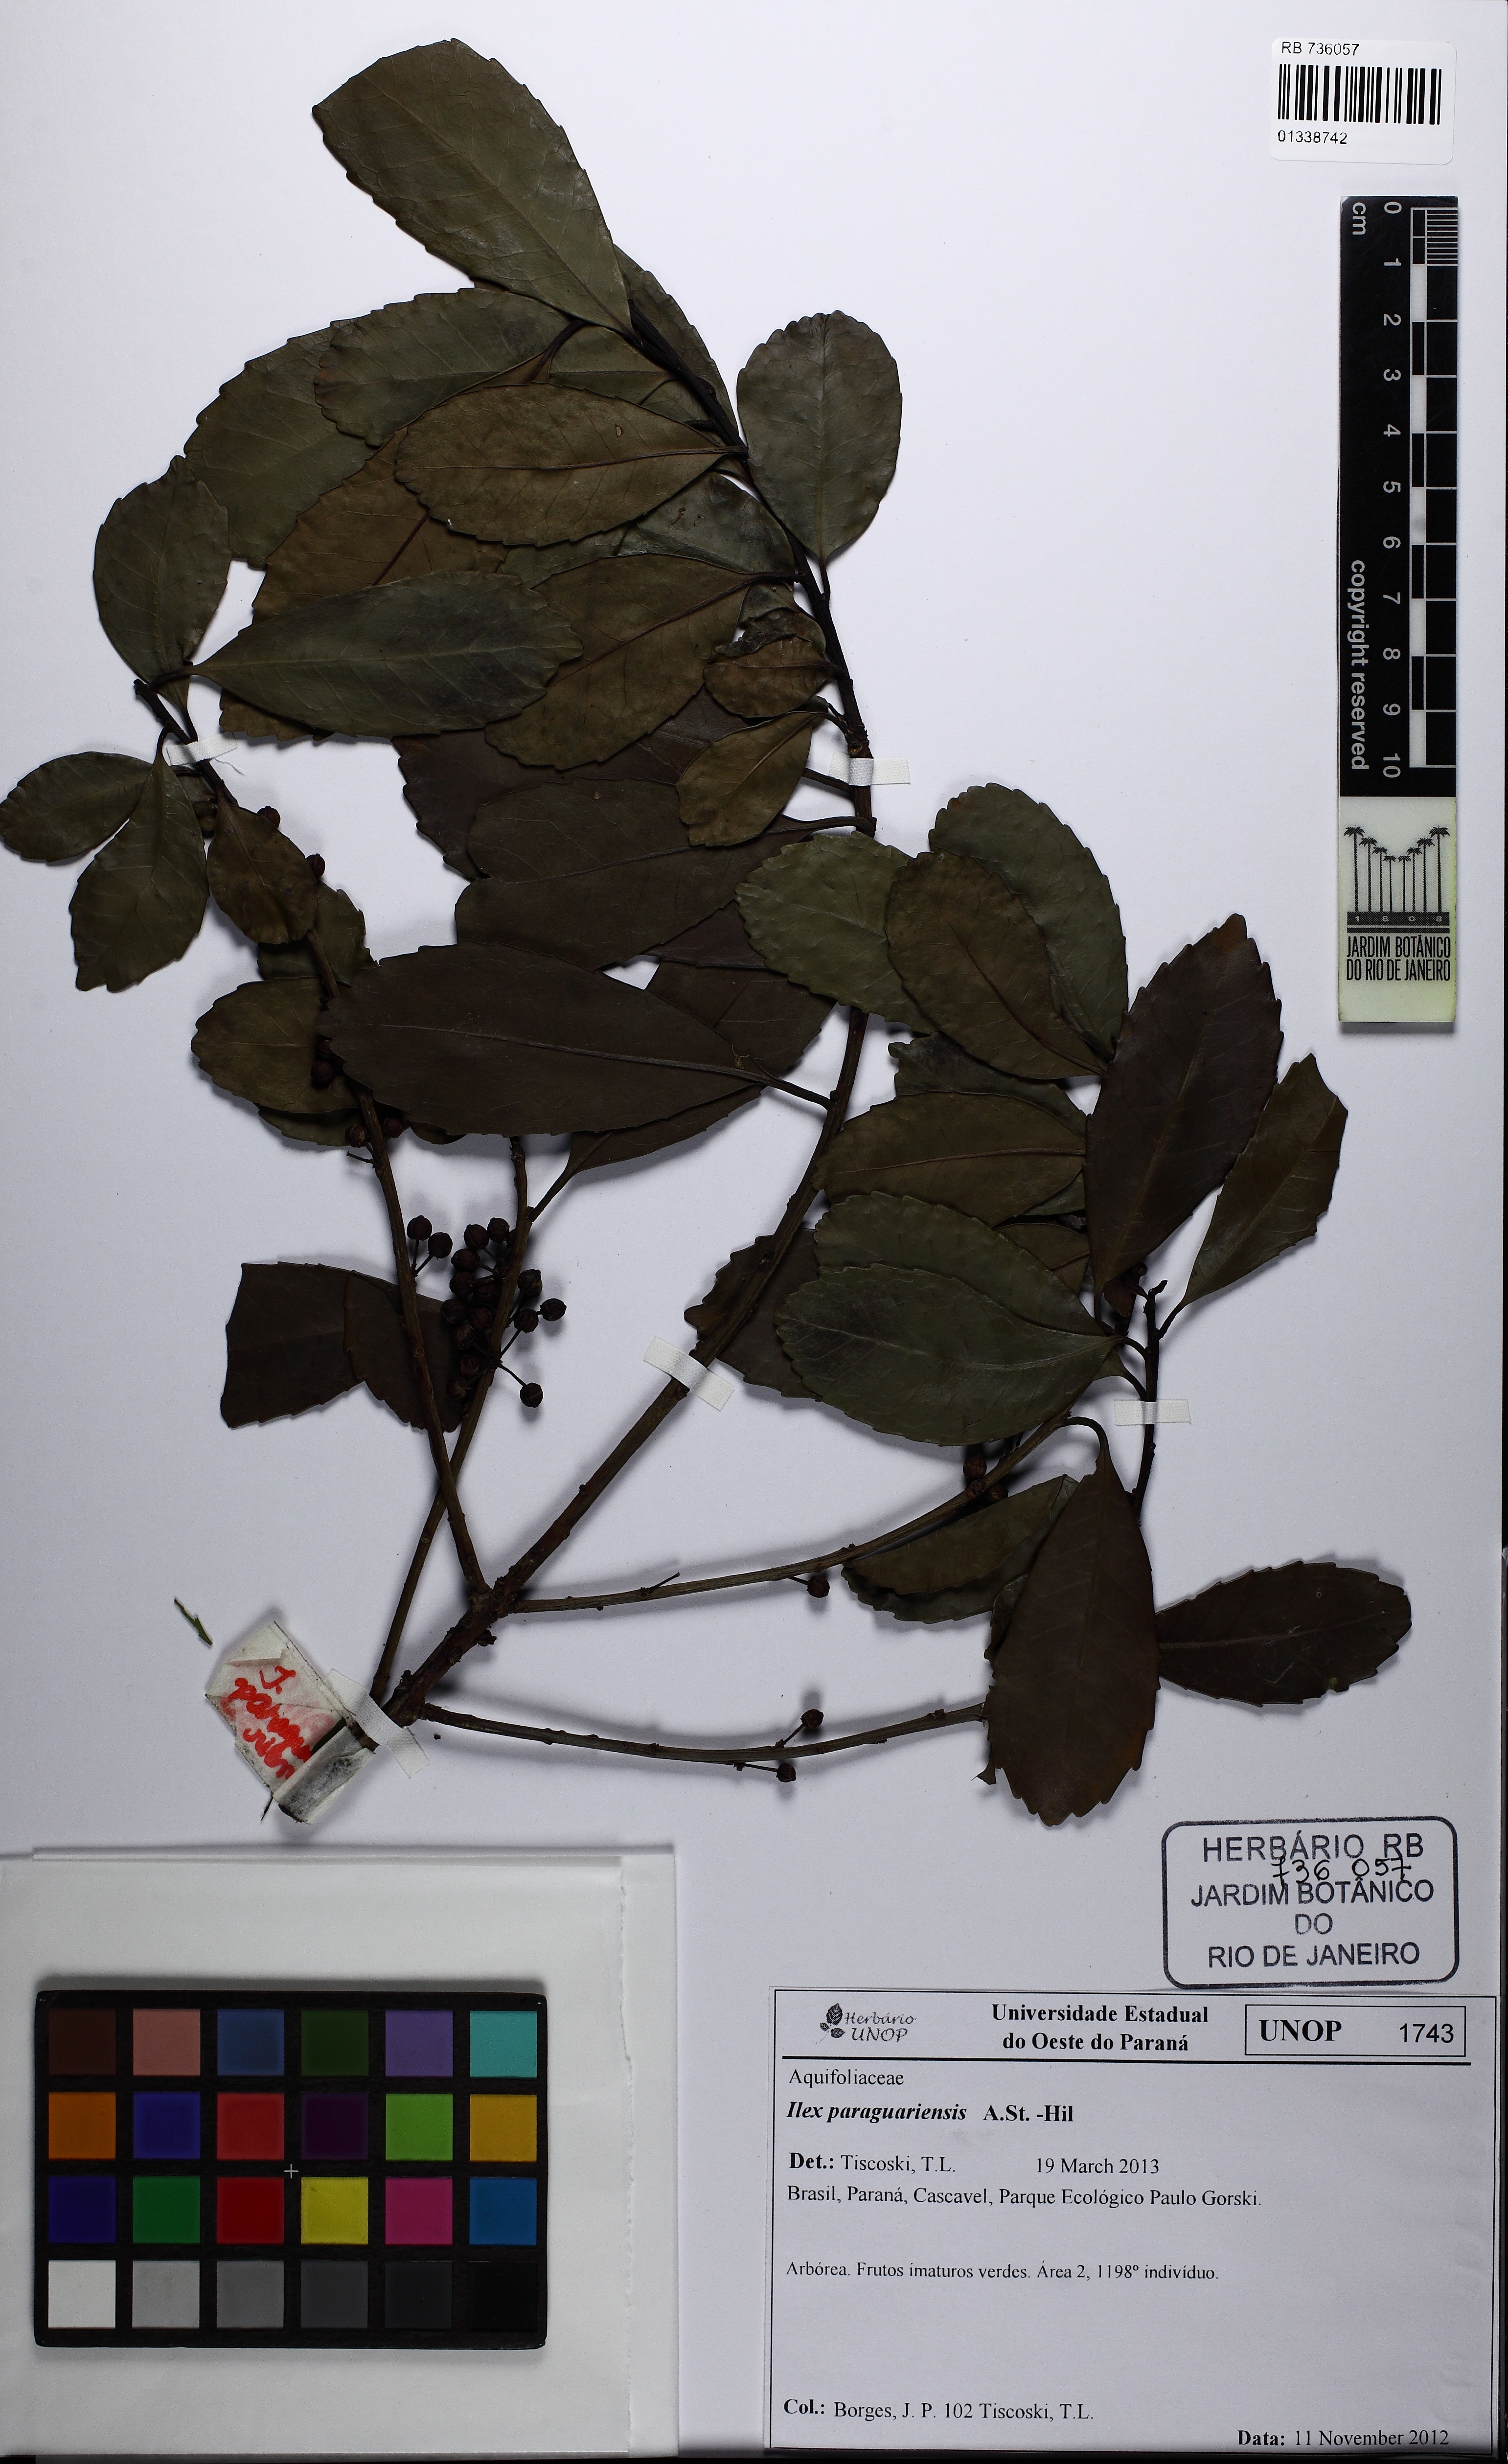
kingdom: Plantae
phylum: Tracheophyta
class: Magnoliopsida
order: Aquifoliales
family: Aquifoliaceae
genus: Ilex
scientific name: Ilex paraguariensis
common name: Paraguay tea
